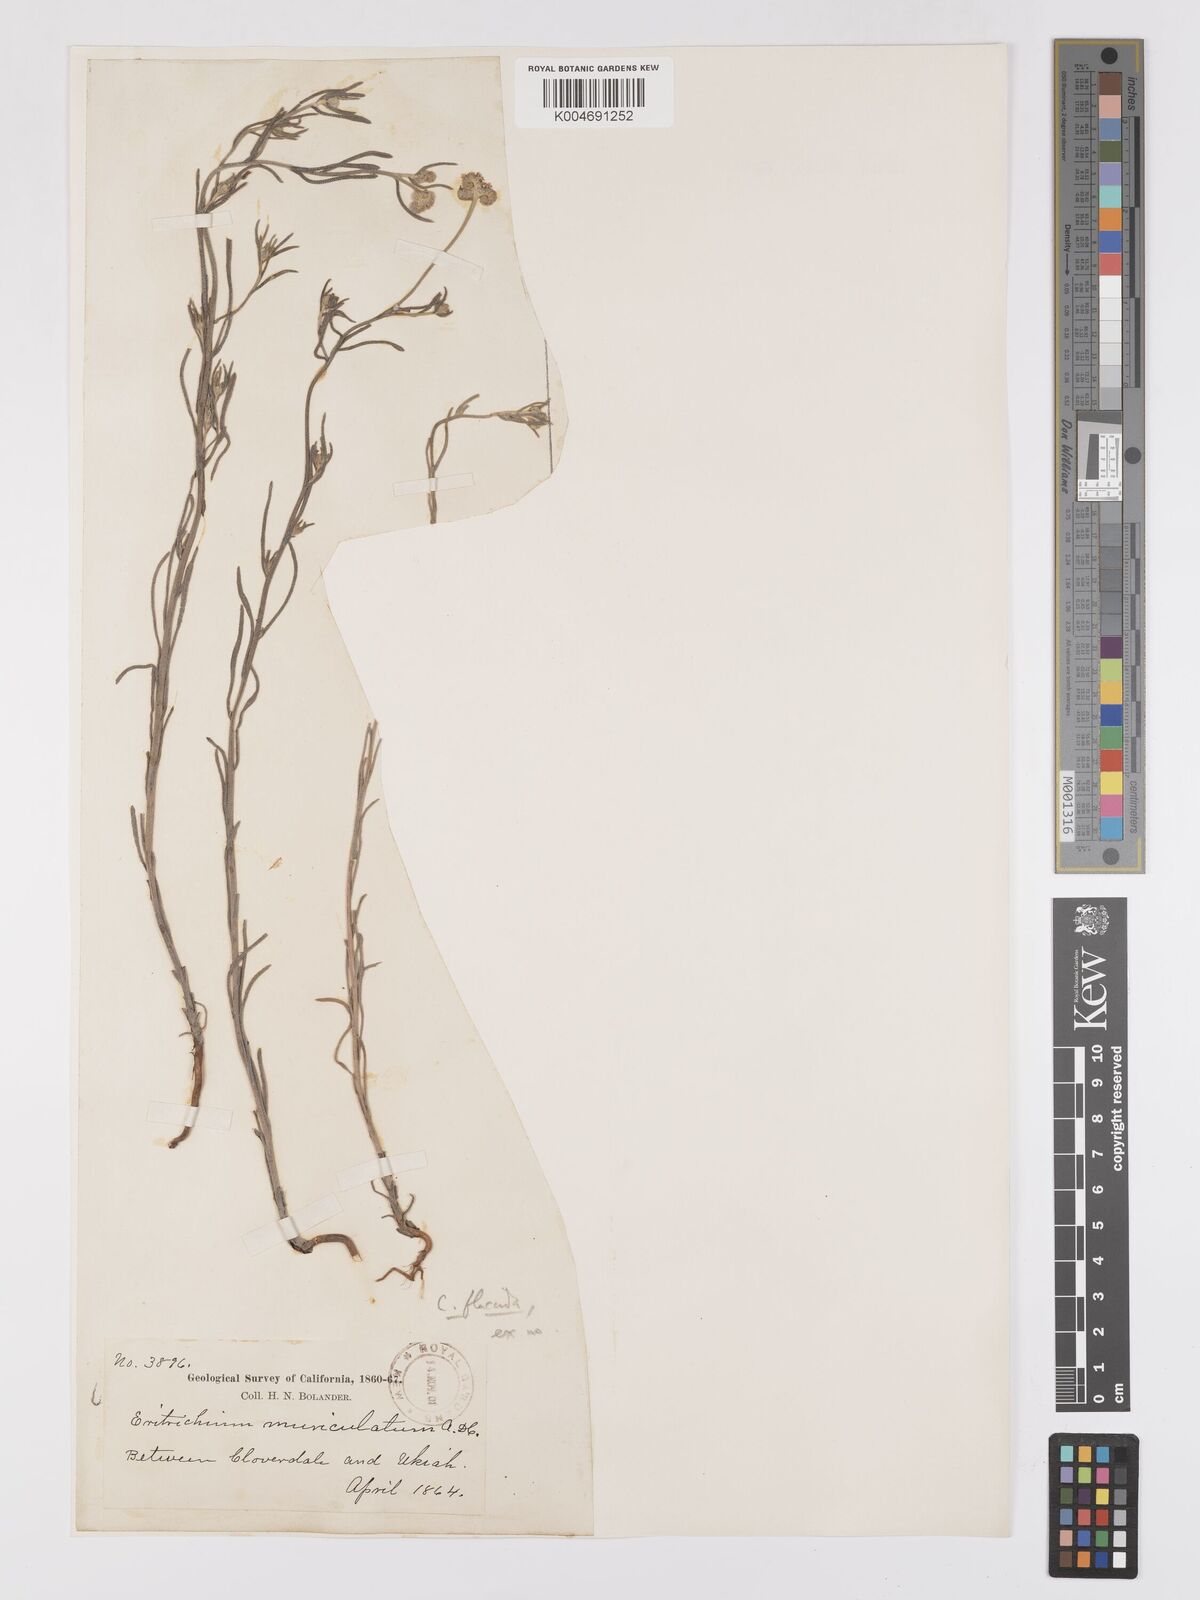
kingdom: Plantae
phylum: Tracheophyta
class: Magnoliopsida
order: Boraginales
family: Boraginaceae
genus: Cryptantha
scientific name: Cryptantha flaccida
